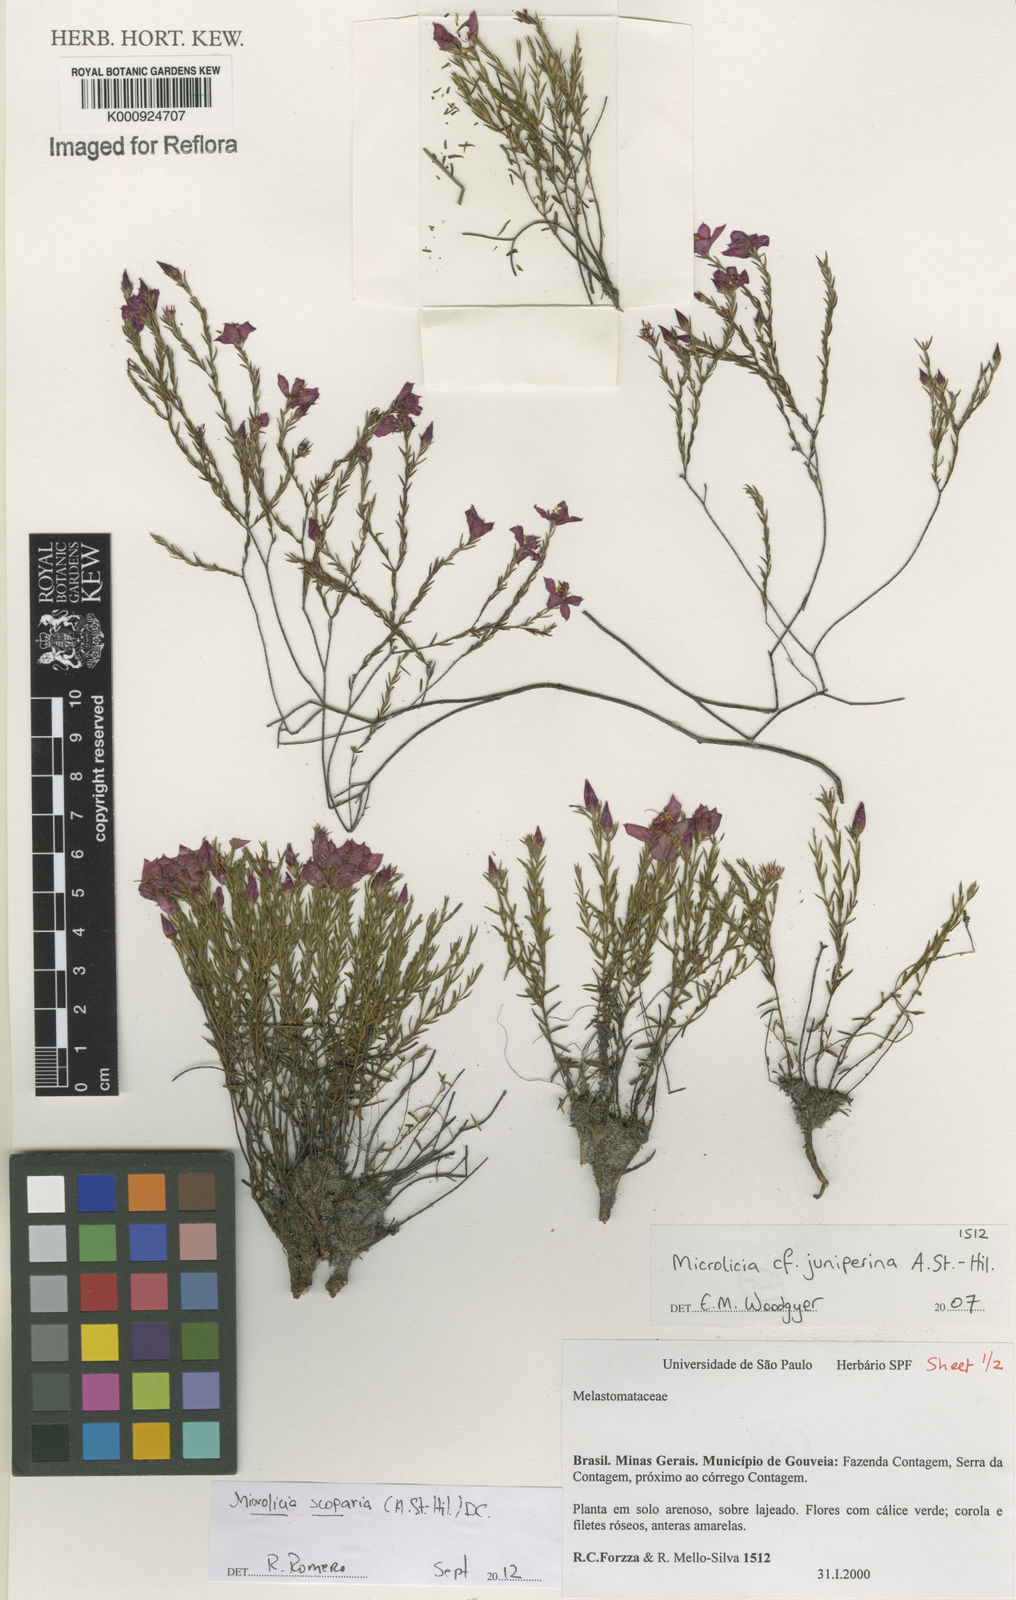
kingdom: Plantae
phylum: Tracheophyta
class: Magnoliopsida
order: Myrtales
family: Melastomataceae
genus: Microlicia
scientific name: Microlicia scoparia
